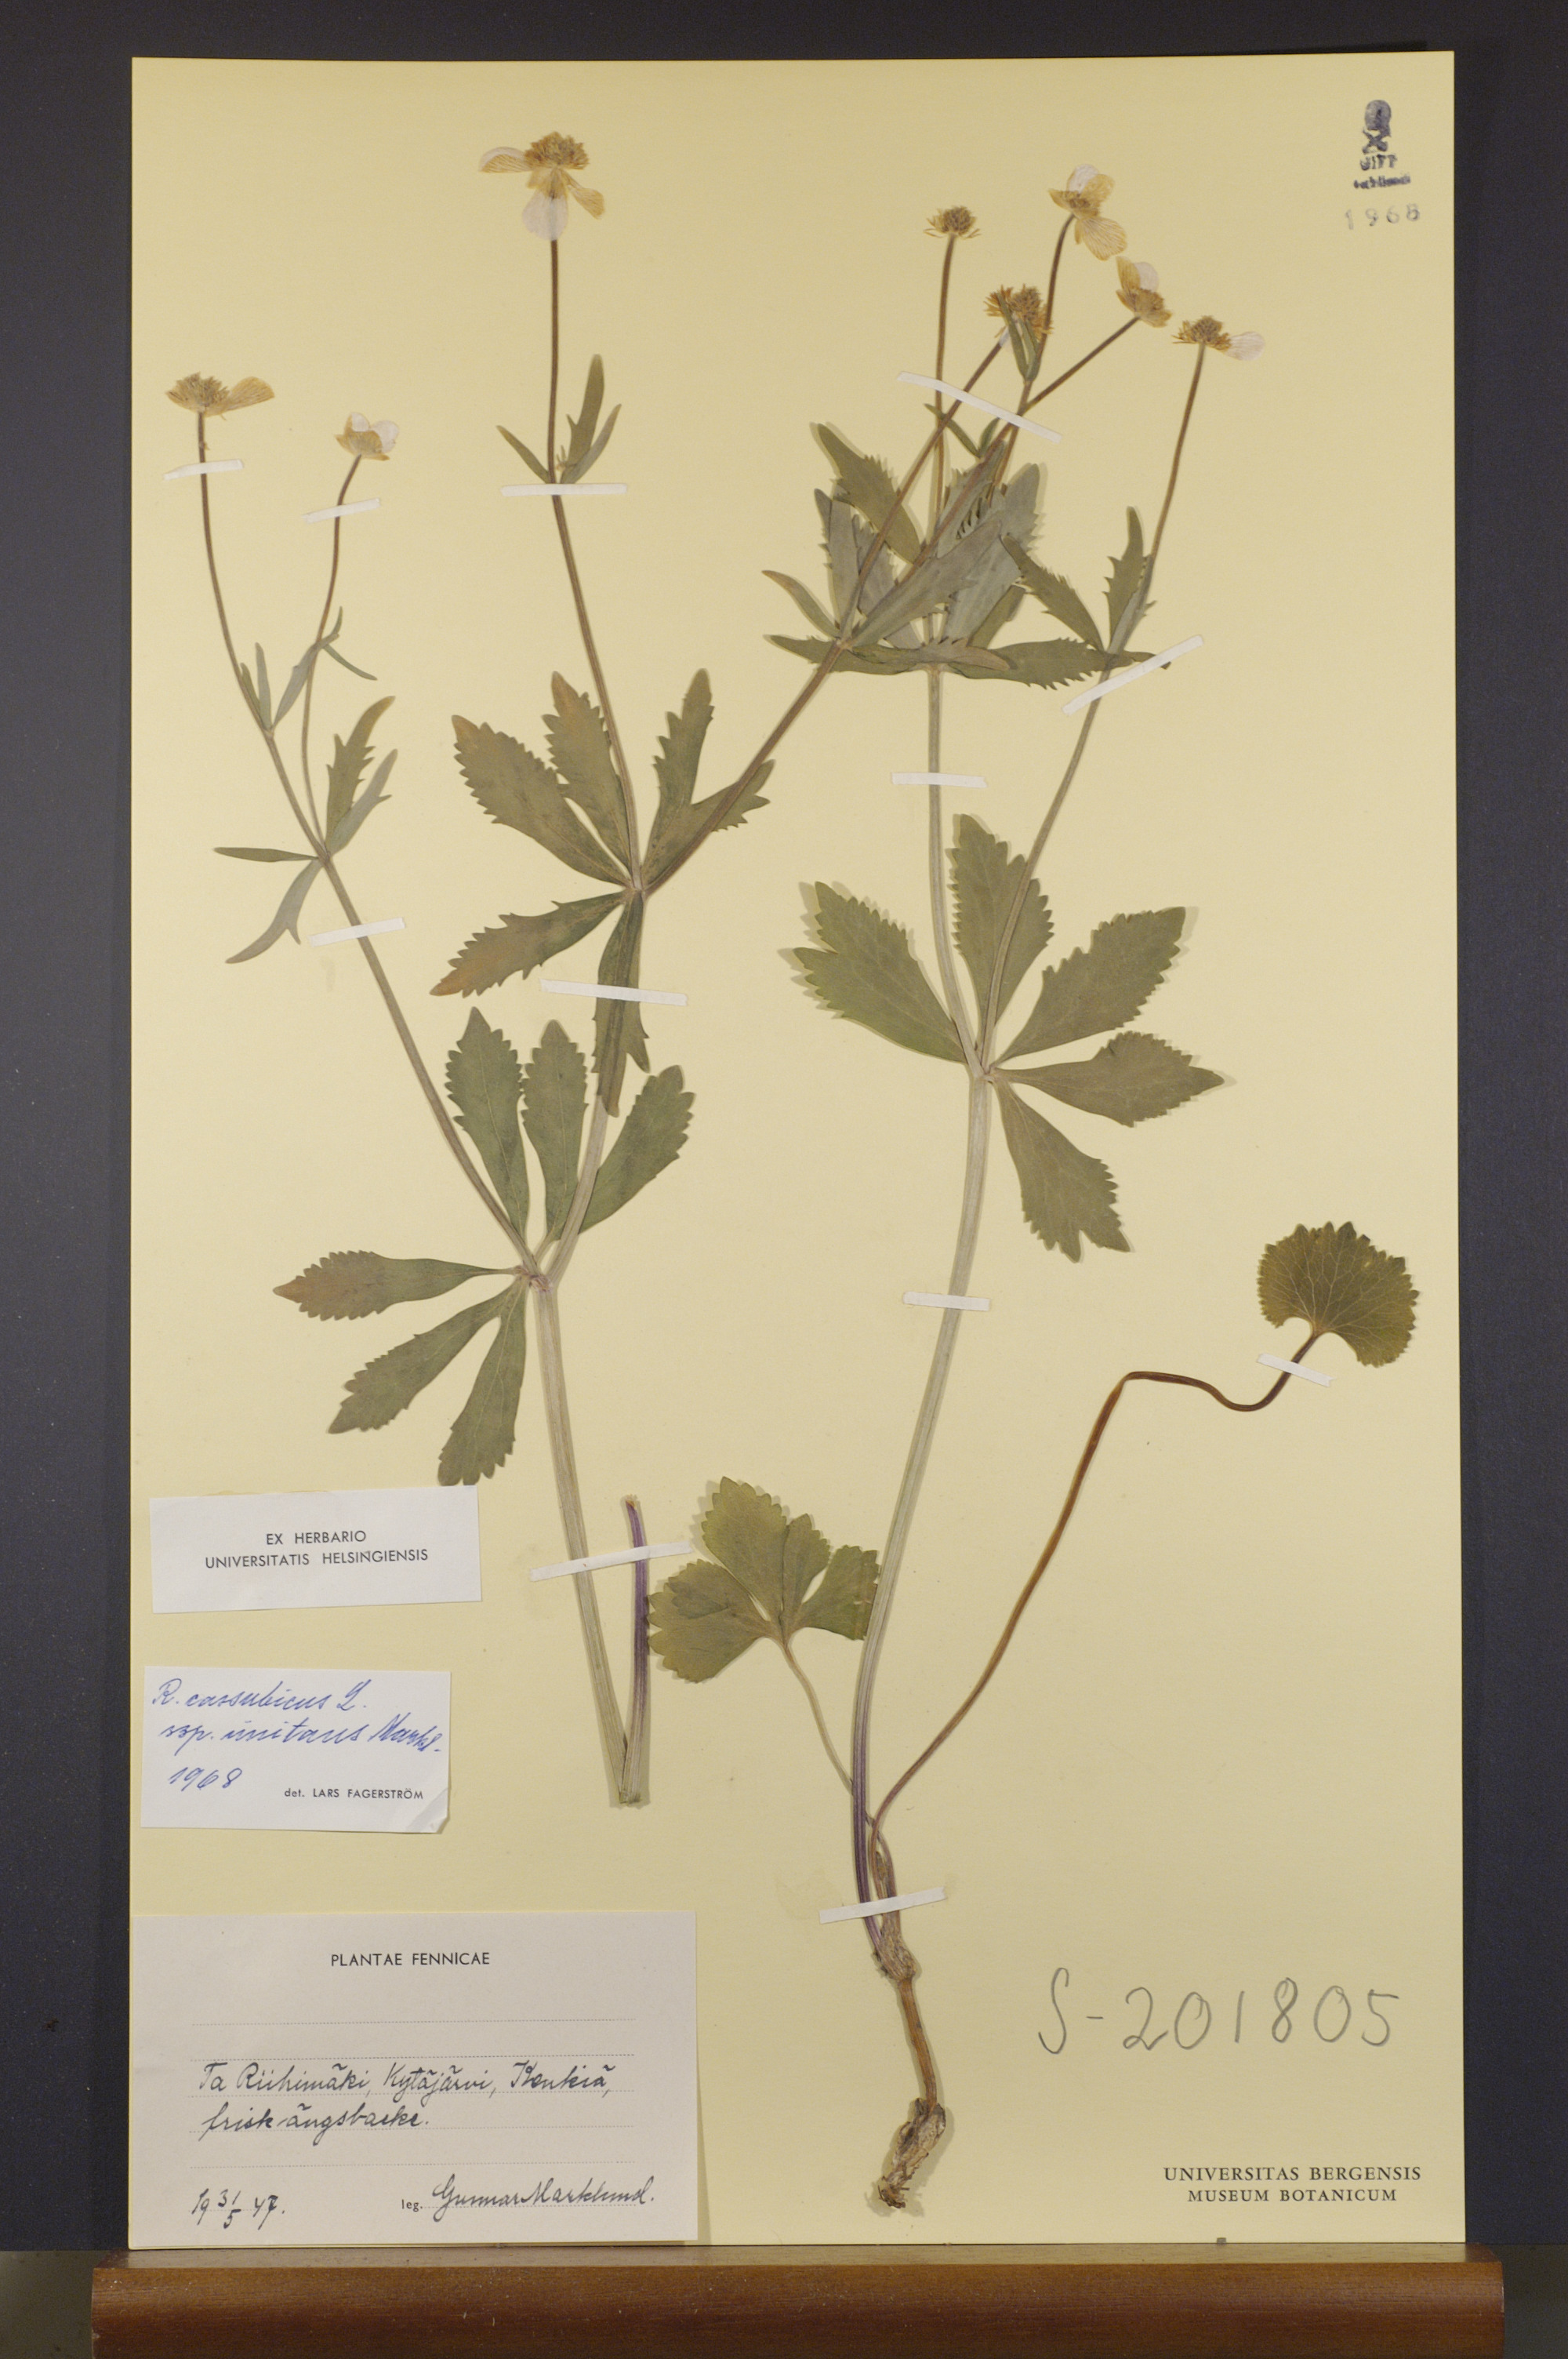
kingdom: Plantae
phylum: Tracheophyta
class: Magnoliopsida
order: Ranunculales
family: Ranunculaceae
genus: Ranunculus
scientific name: Ranunculus imitans
